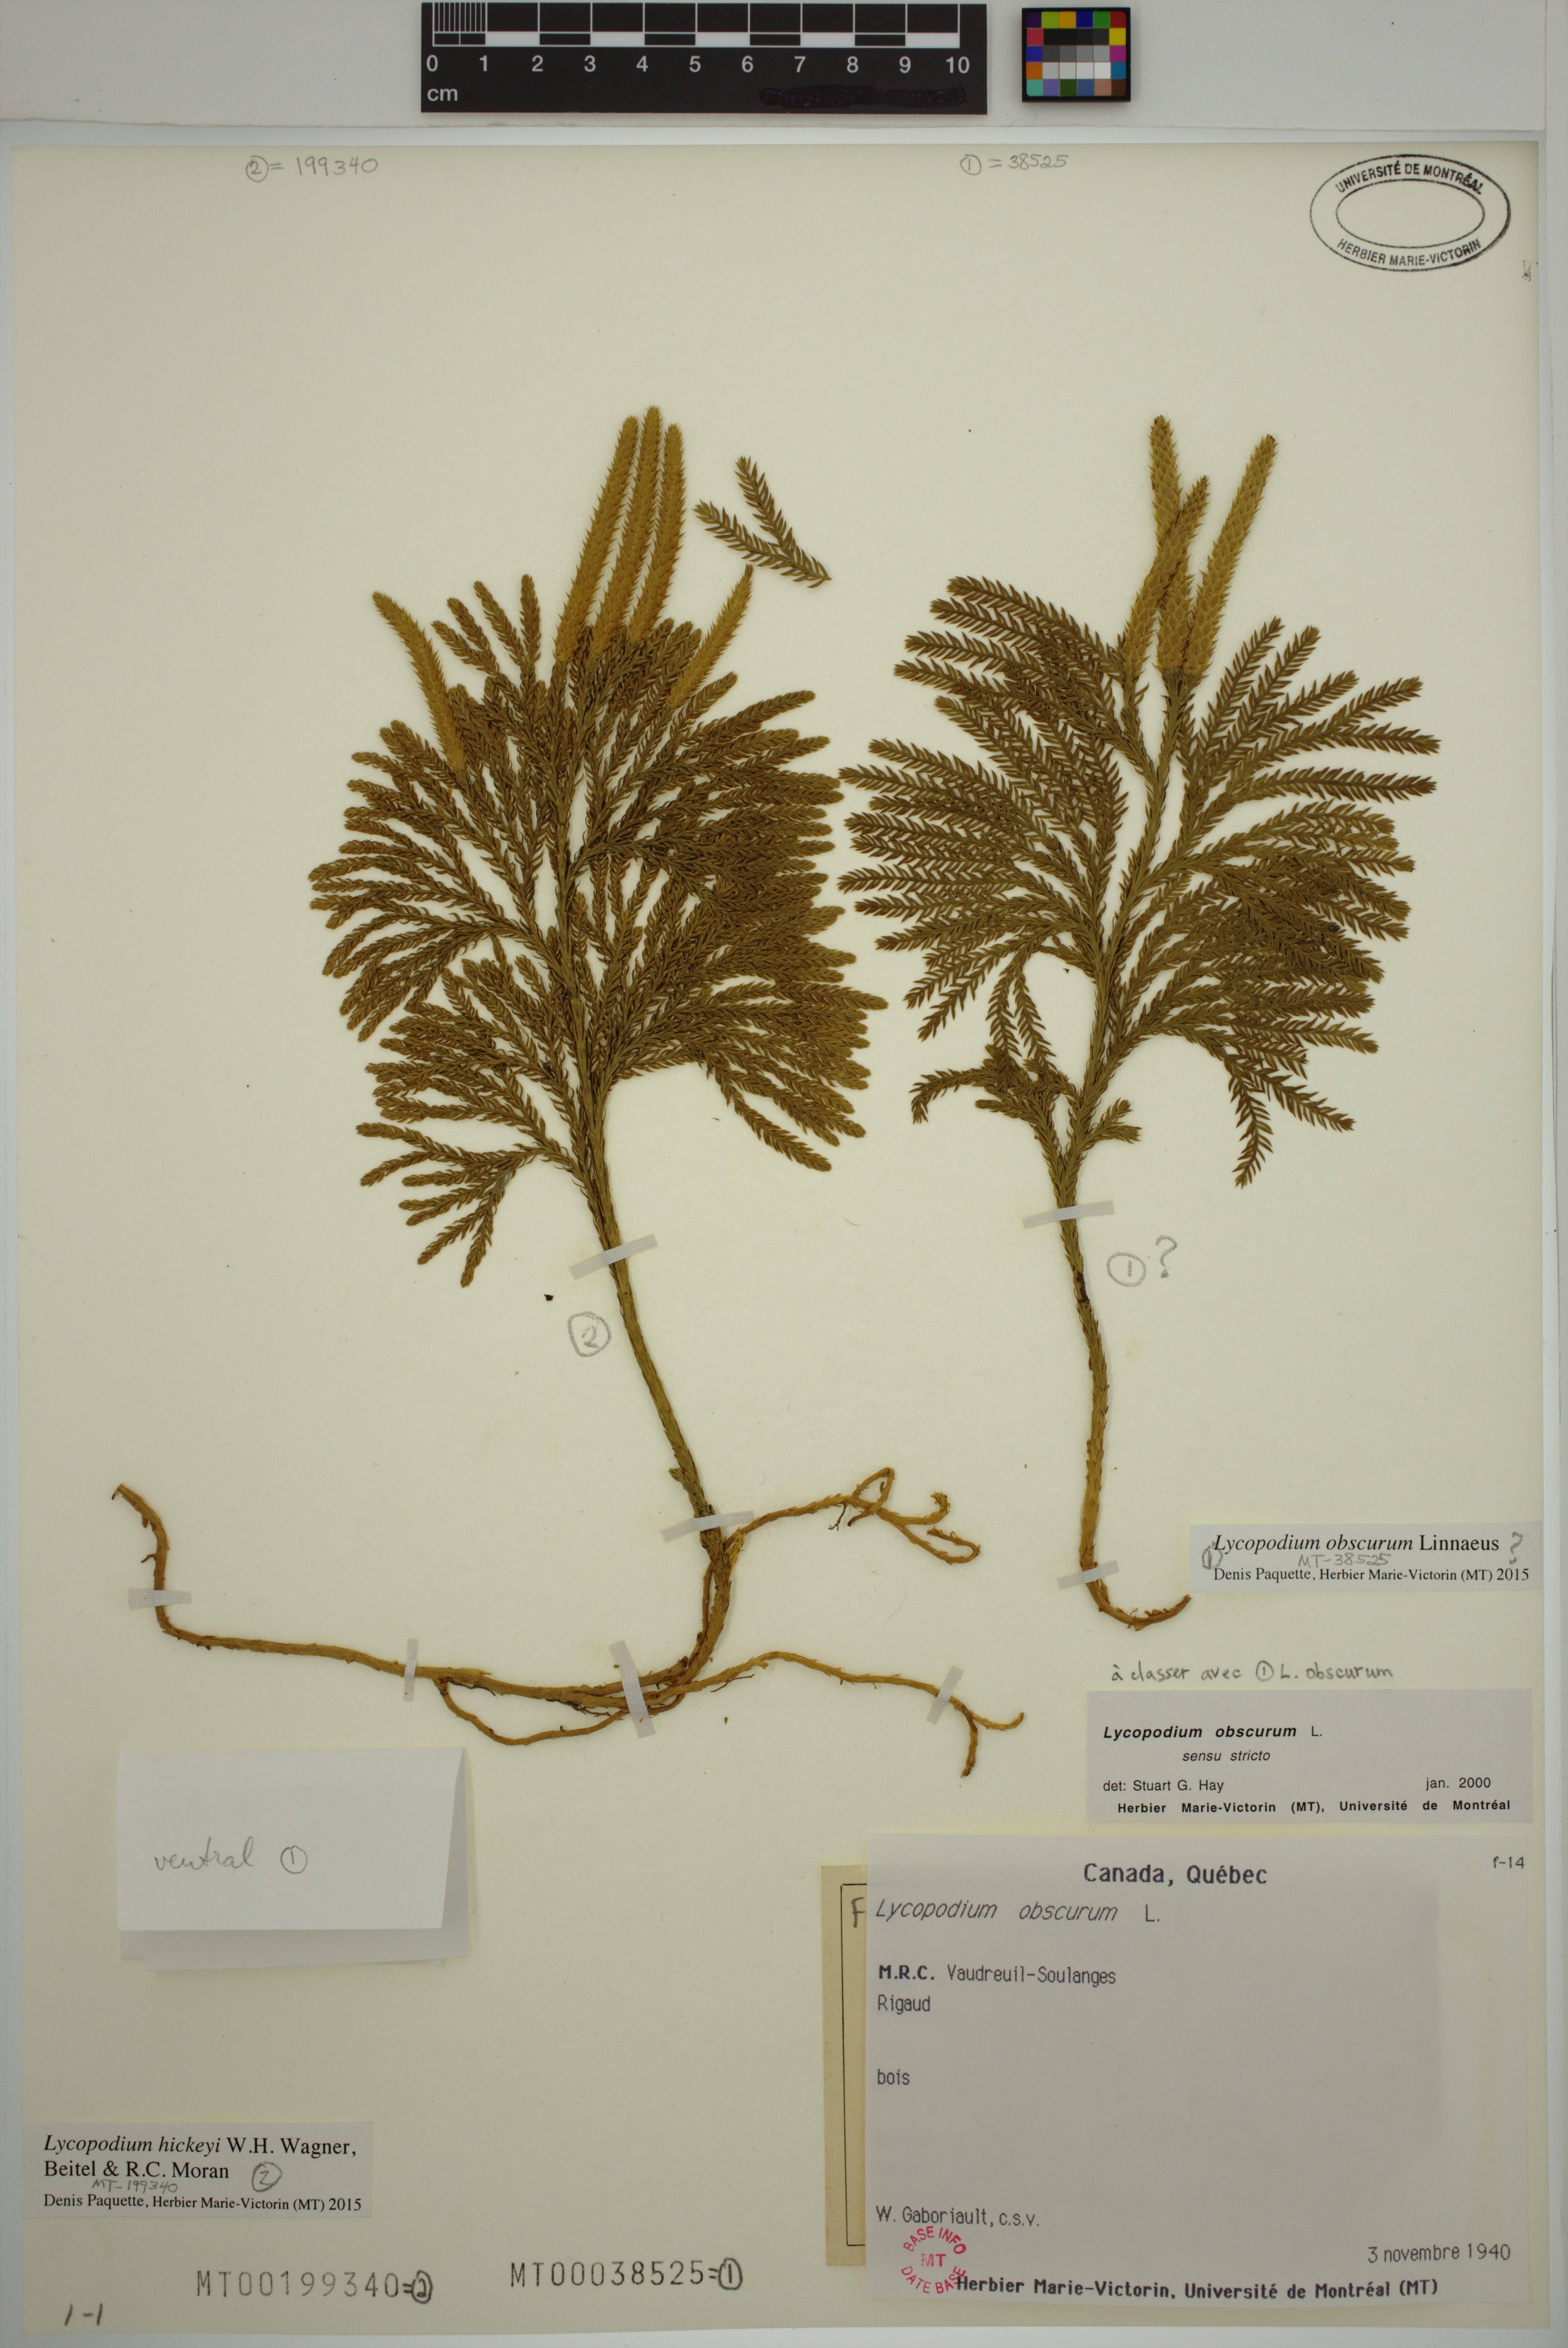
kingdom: Plantae
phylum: Tracheophyta
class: Lycopodiopsida
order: Lycopodiales
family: Lycopodiaceae
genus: Dendrolycopodium
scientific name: Dendrolycopodium obscurum
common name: Common ground-pine
